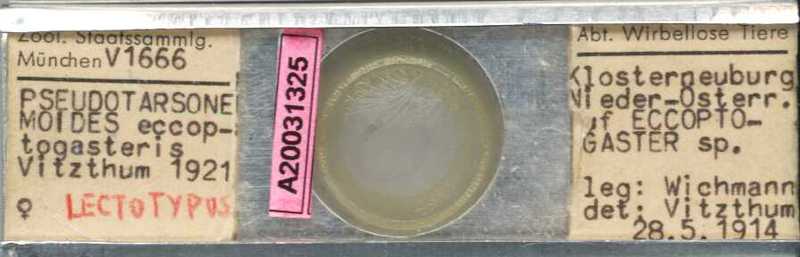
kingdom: Animalia
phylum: Arthropoda
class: Arachnida
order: Trombidiformes
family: Tarsonemidae
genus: Pseudotarsonemoides
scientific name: Pseudotarsonemoides eccoptogasteris
